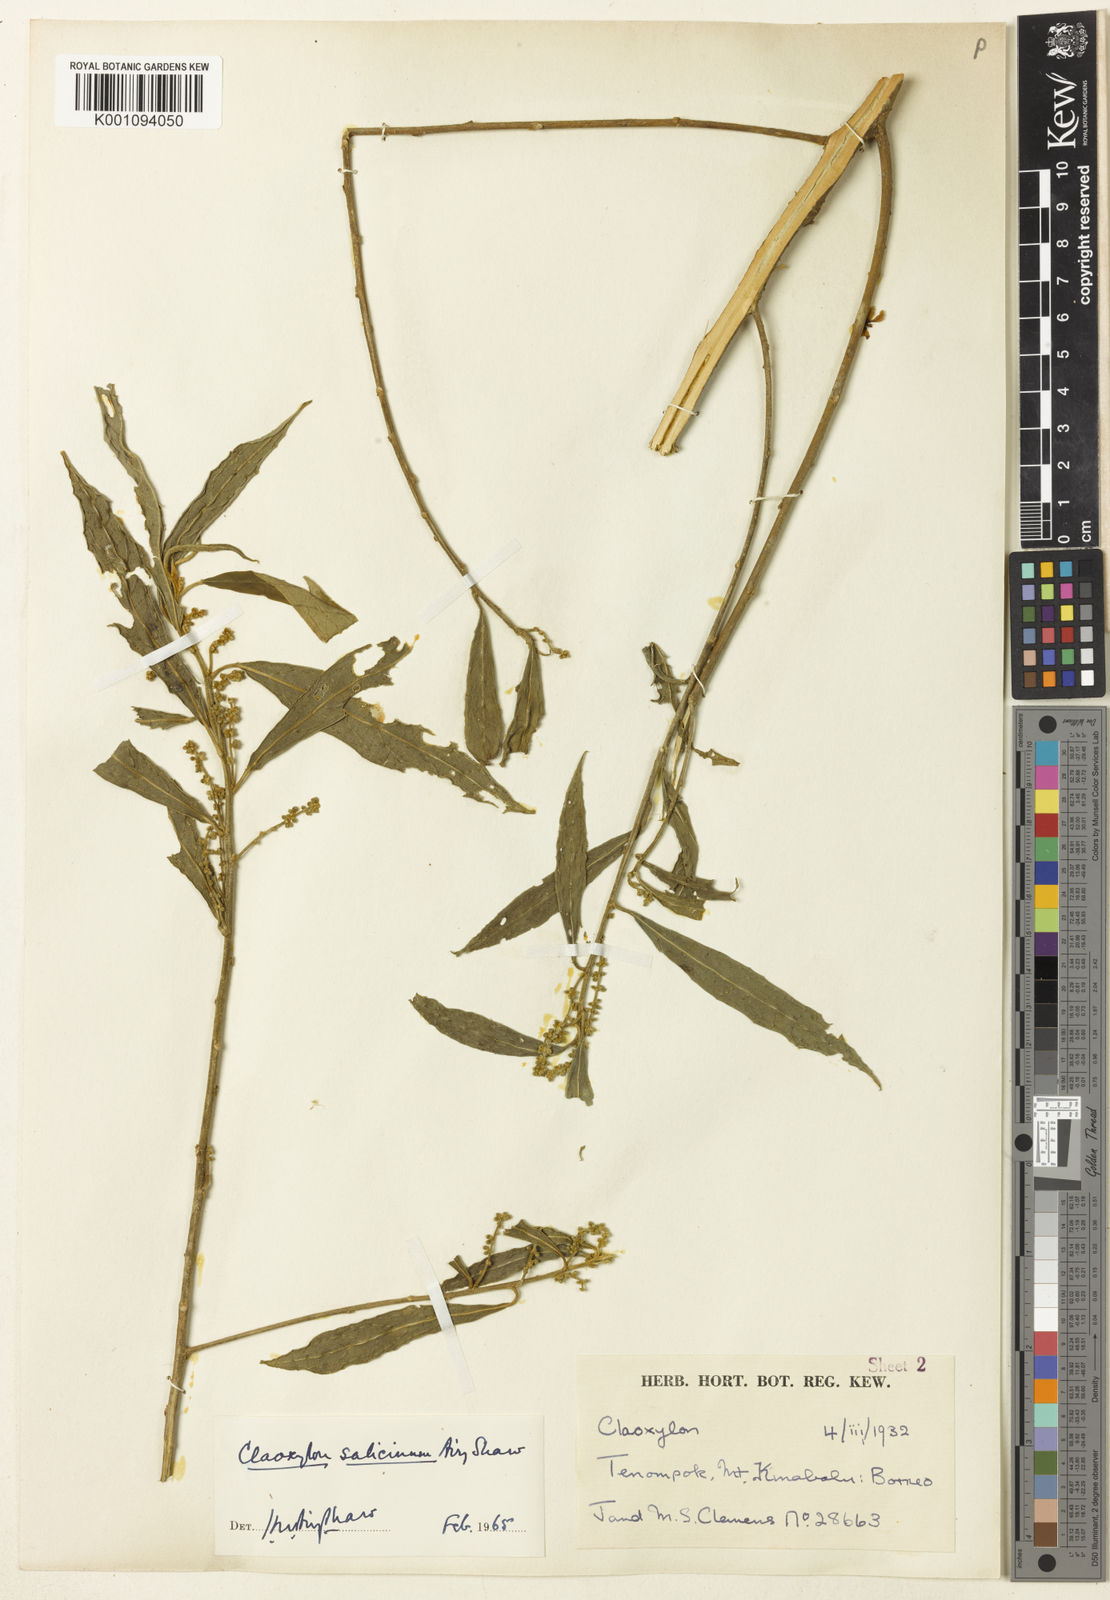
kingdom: Plantae
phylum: Tracheophyta
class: Magnoliopsida
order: Malpighiales
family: Euphorbiaceae
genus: Claoxylon
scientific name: Claoxylon salicinum
